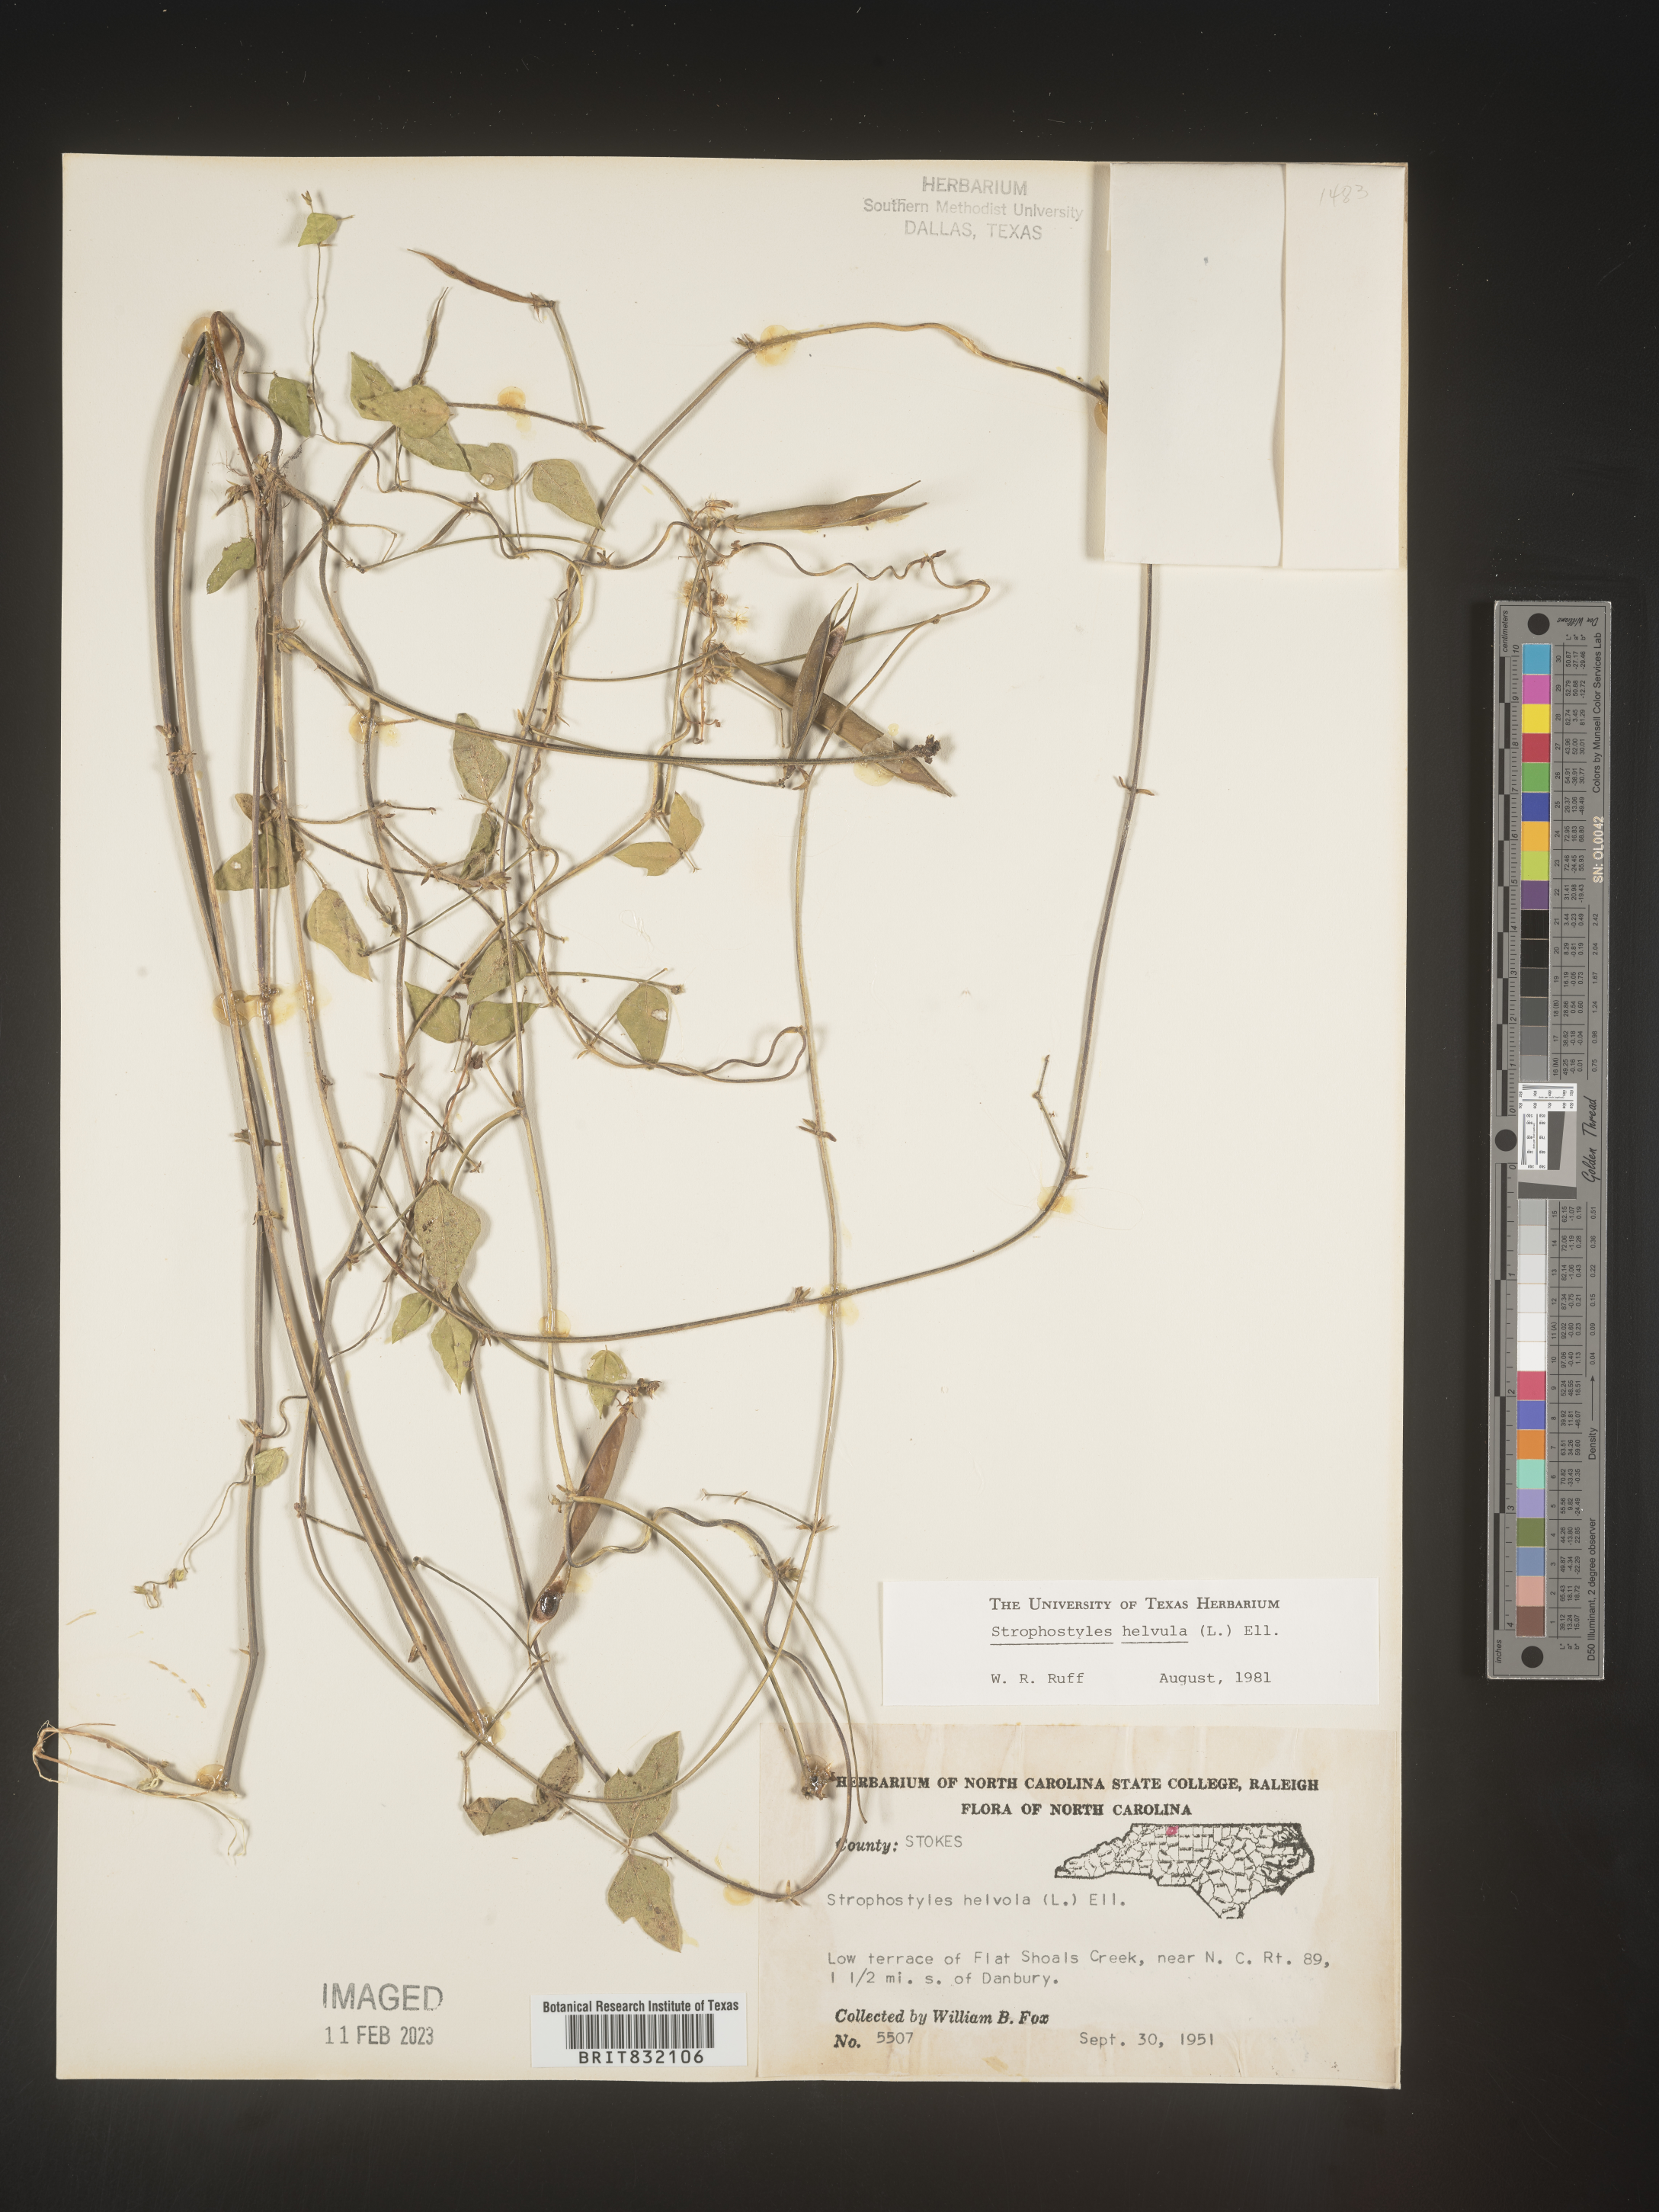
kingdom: Plantae
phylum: Tracheophyta
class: Magnoliopsida
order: Fabales
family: Fabaceae
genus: Strophostyles
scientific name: Strophostyles helvola
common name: Trailing wild bean
